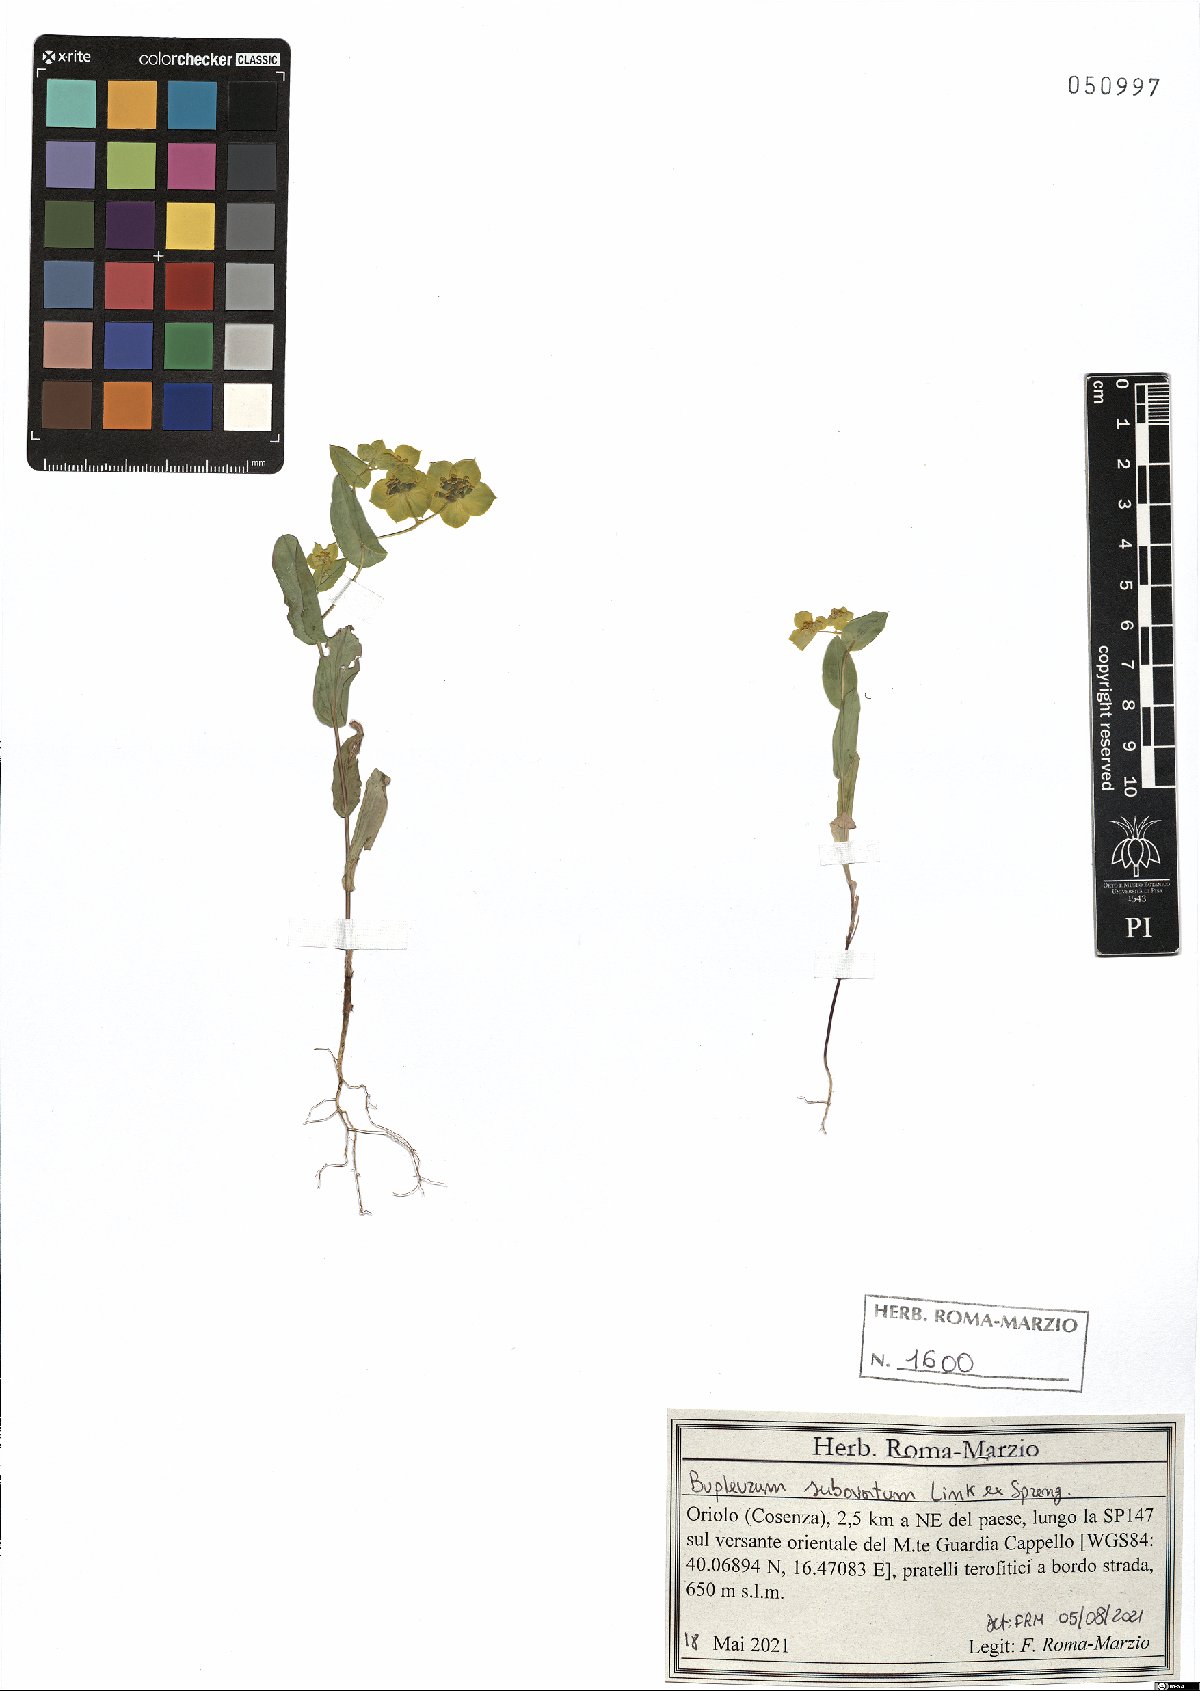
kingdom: Plantae
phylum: Tracheophyta
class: Magnoliopsida
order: Apiales
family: Apiaceae
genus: Bupleurum
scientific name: Bupleurum subovatum
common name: False thorow-wax
